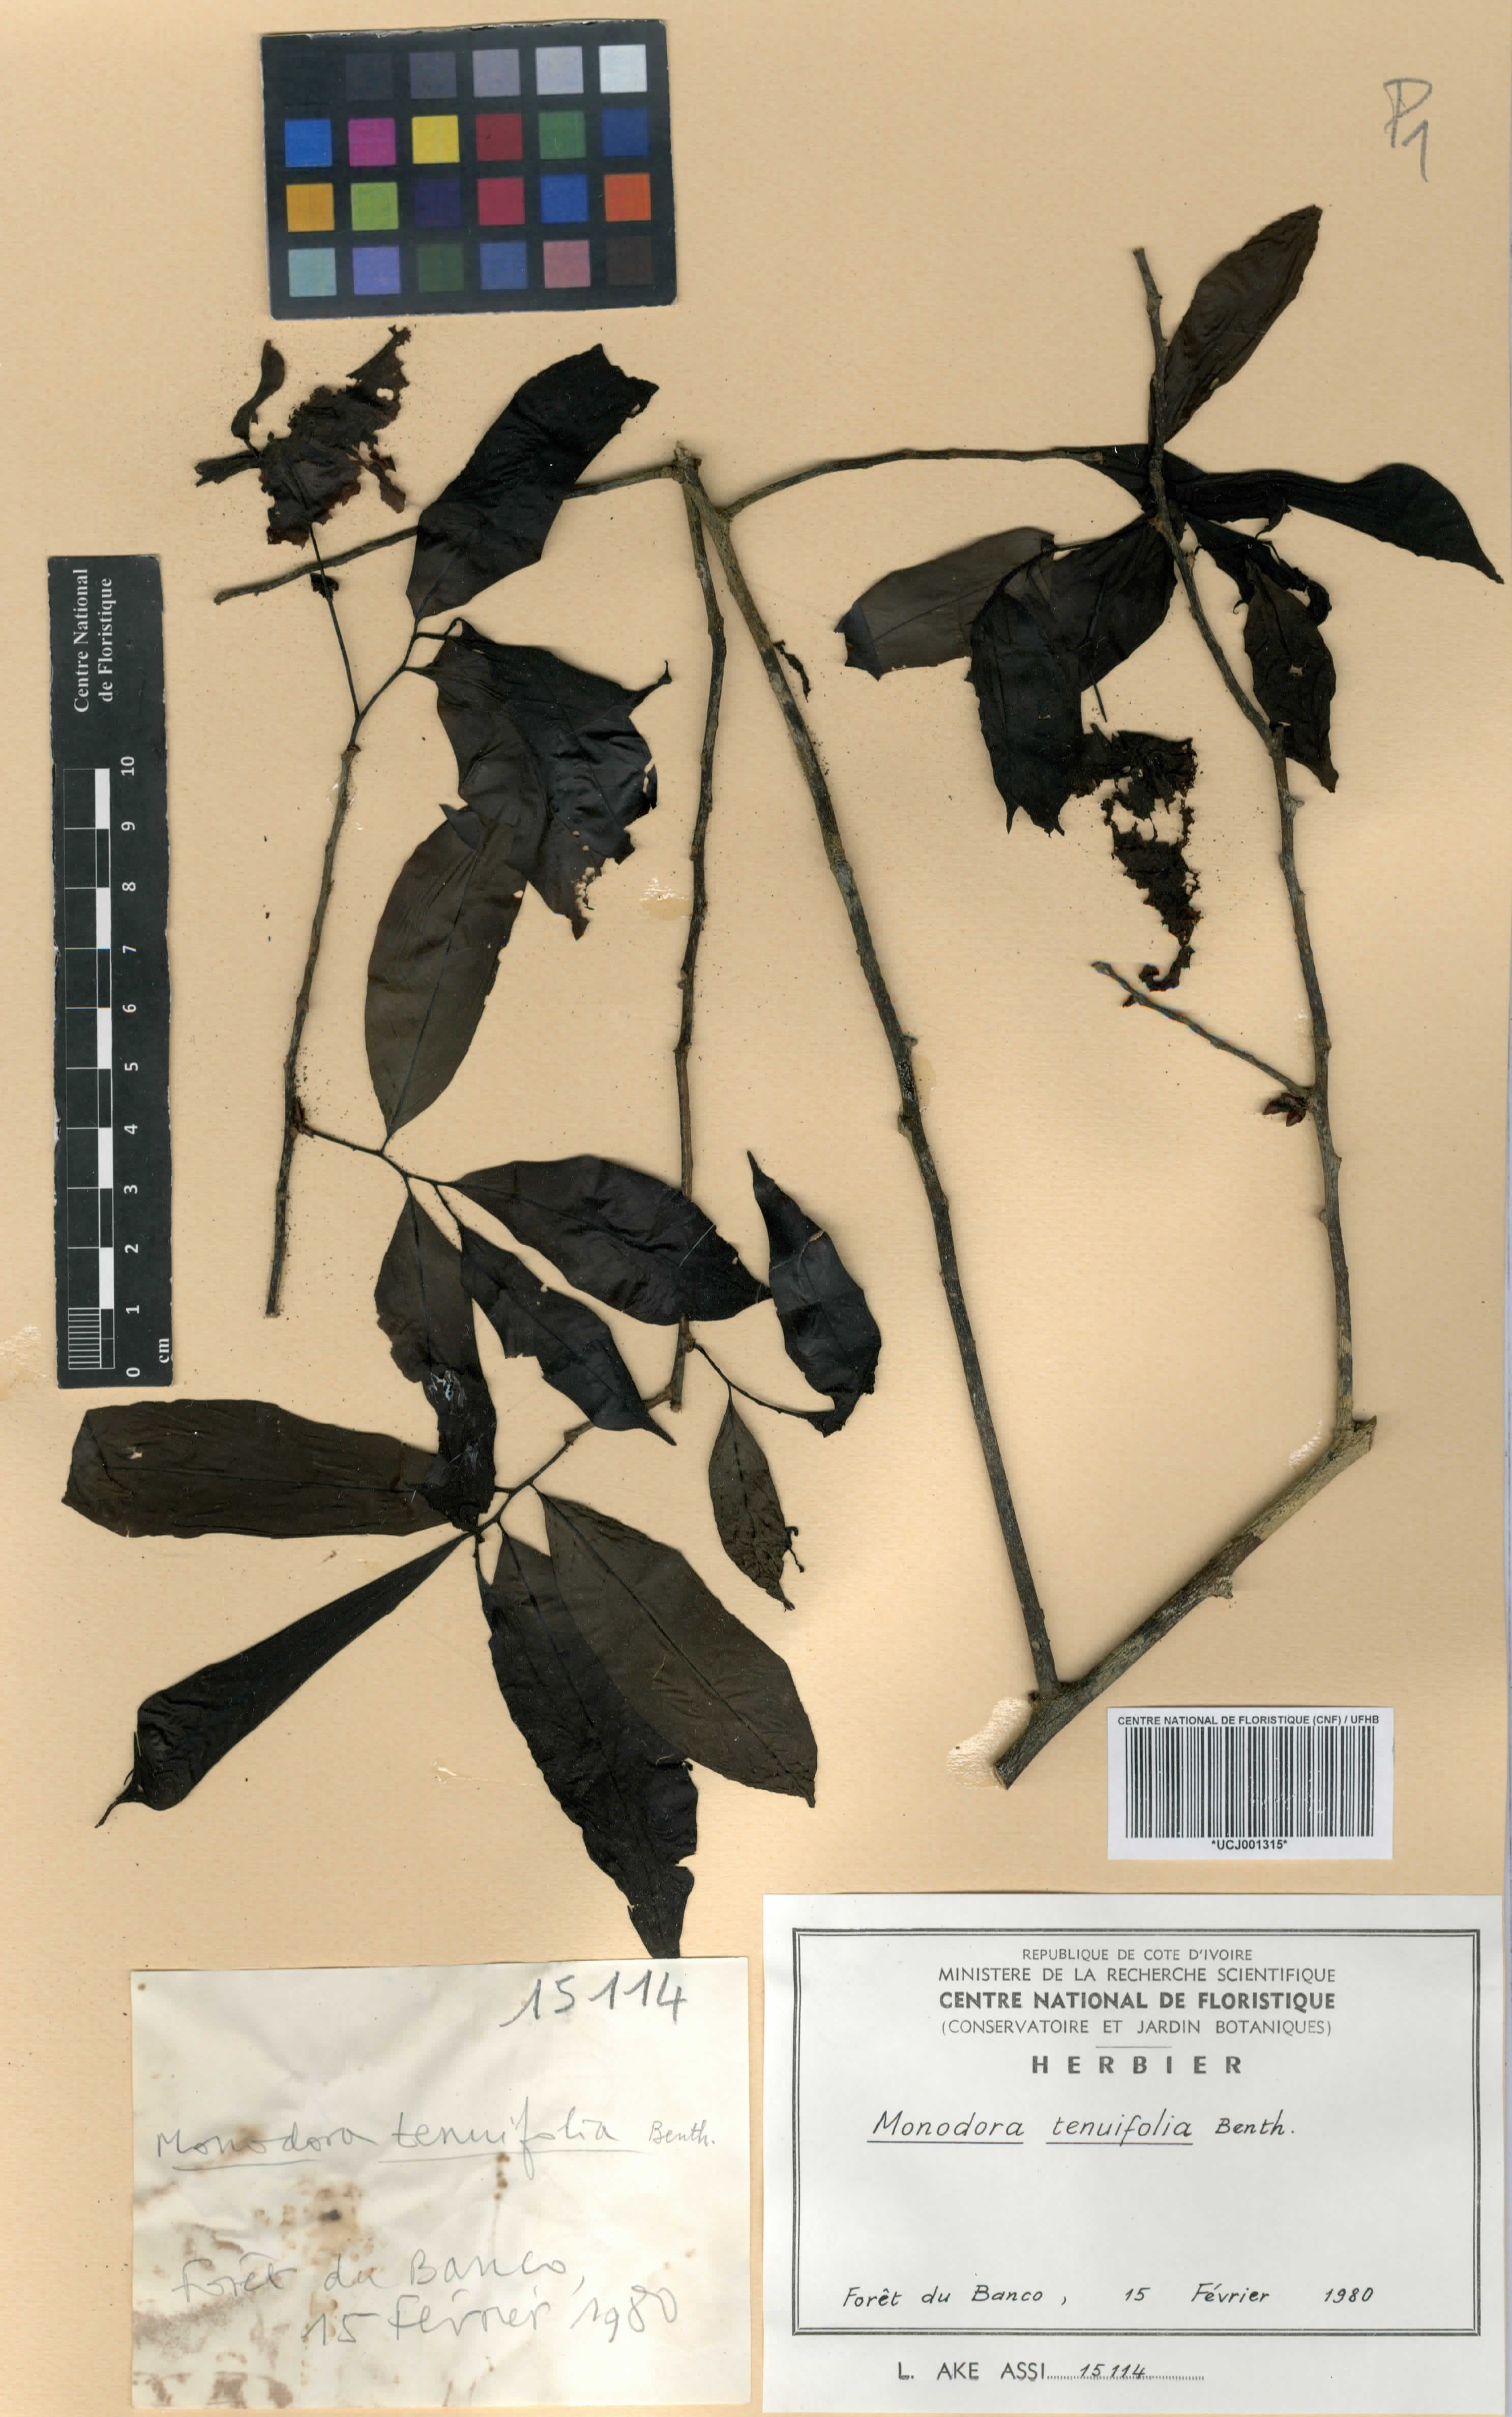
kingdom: Plantae
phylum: Tracheophyta
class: Magnoliopsida
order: Magnoliales
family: Annonaceae
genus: Monodora
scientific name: Monodora tenuifolia
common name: Orchidtree
